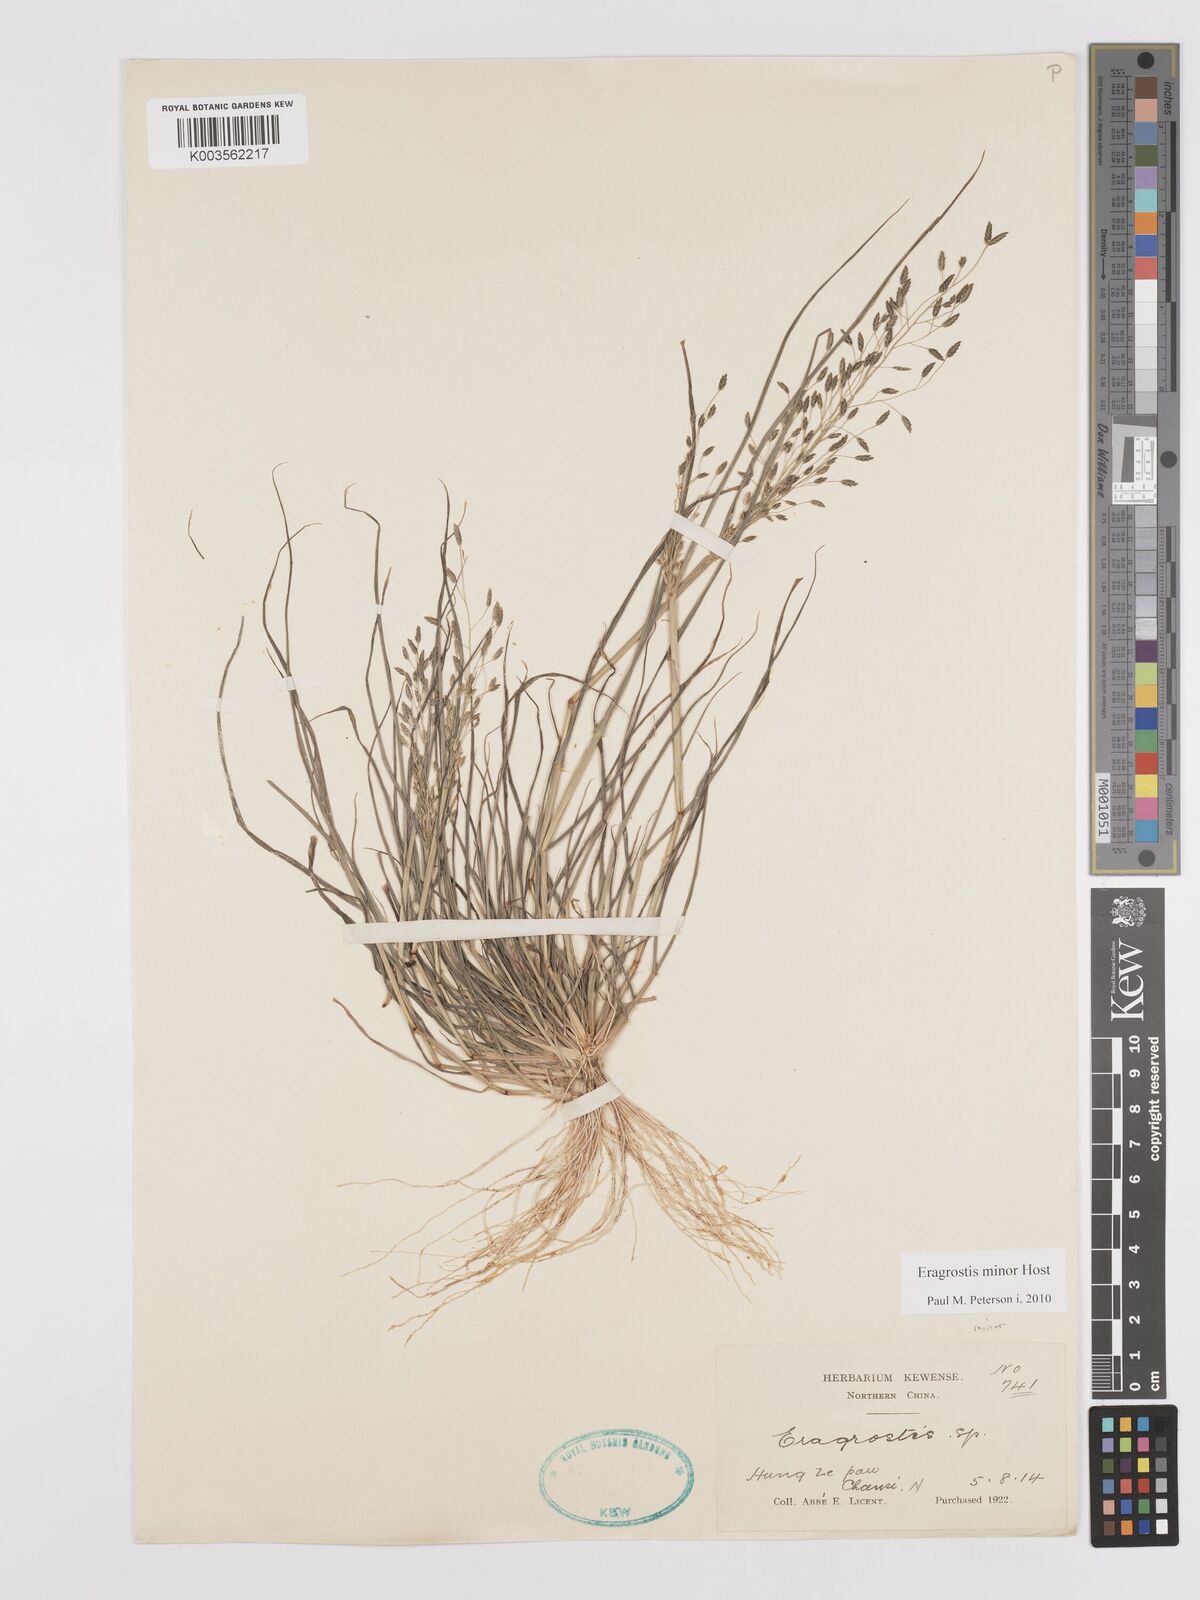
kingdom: Plantae
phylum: Tracheophyta
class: Liliopsida
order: Poales
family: Poaceae
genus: Eragrostis
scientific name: Eragrostis minor
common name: Small love-grass
